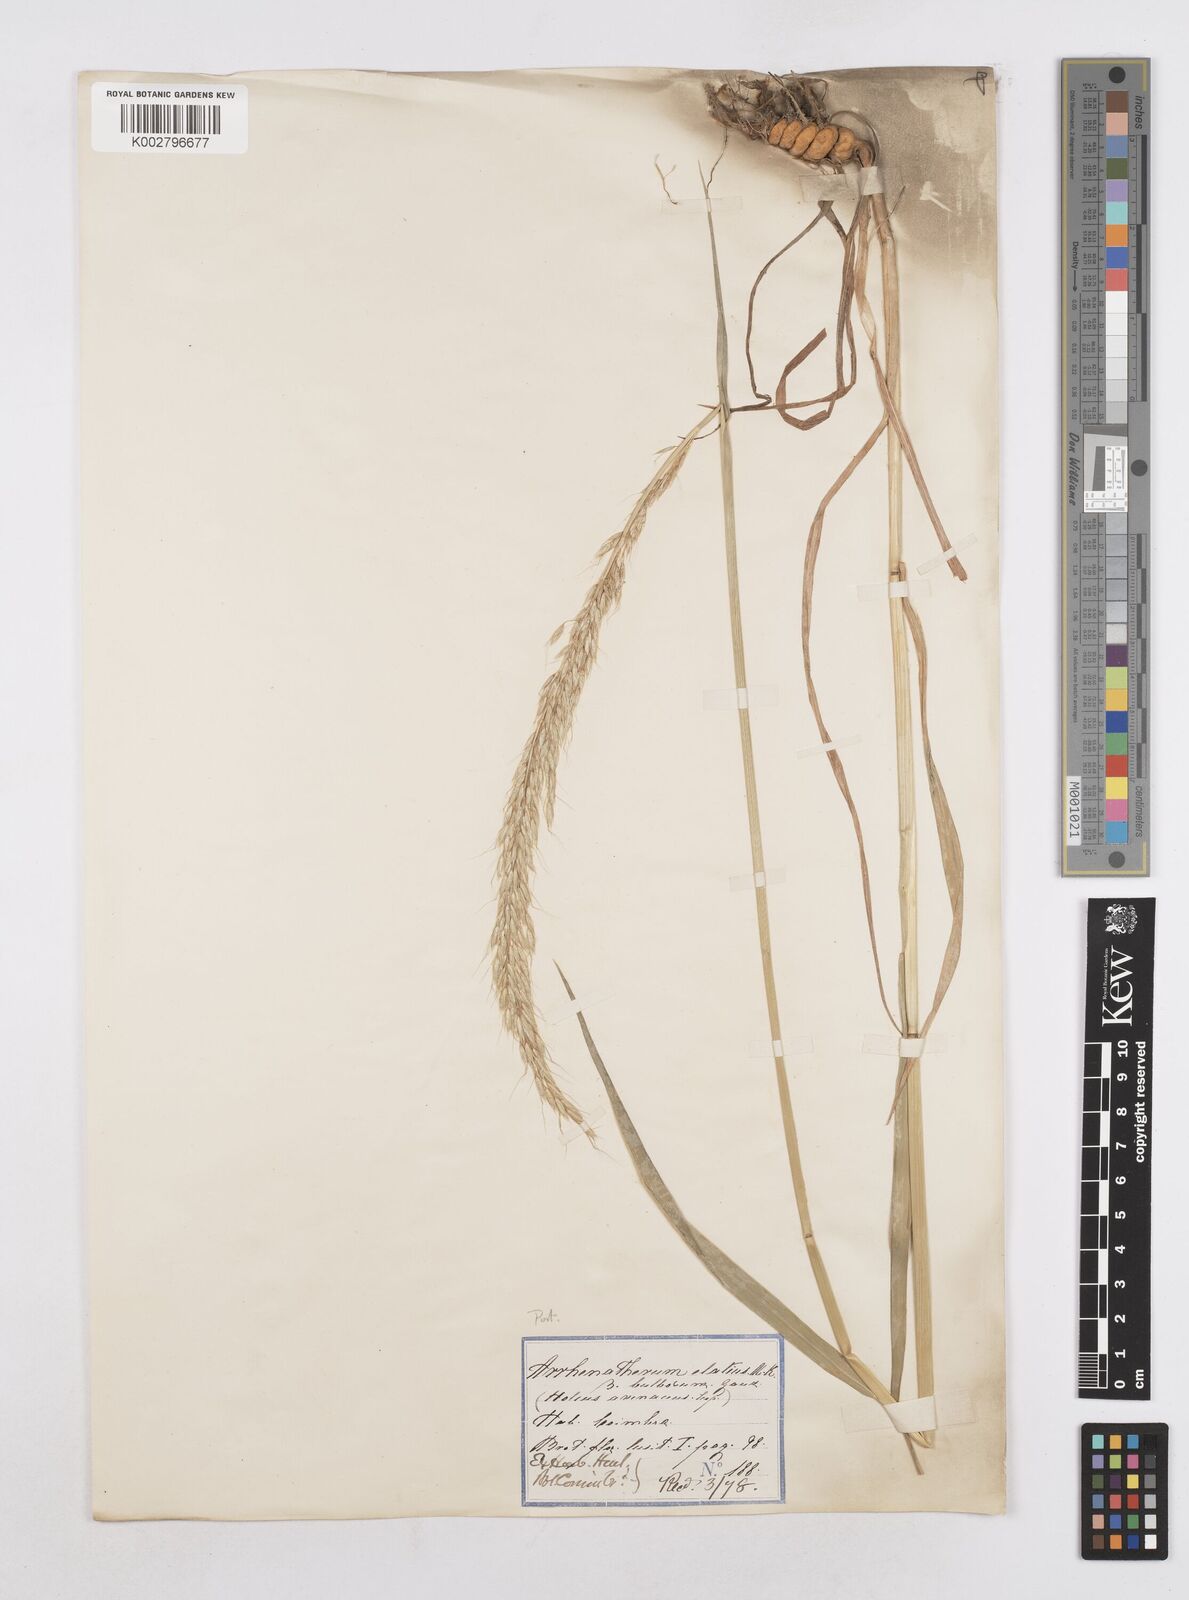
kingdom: Plantae
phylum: Tracheophyta
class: Liliopsida
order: Poales
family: Poaceae
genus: Arrhenatherum
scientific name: Arrhenatherum elatius
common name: Tall oatgrass
